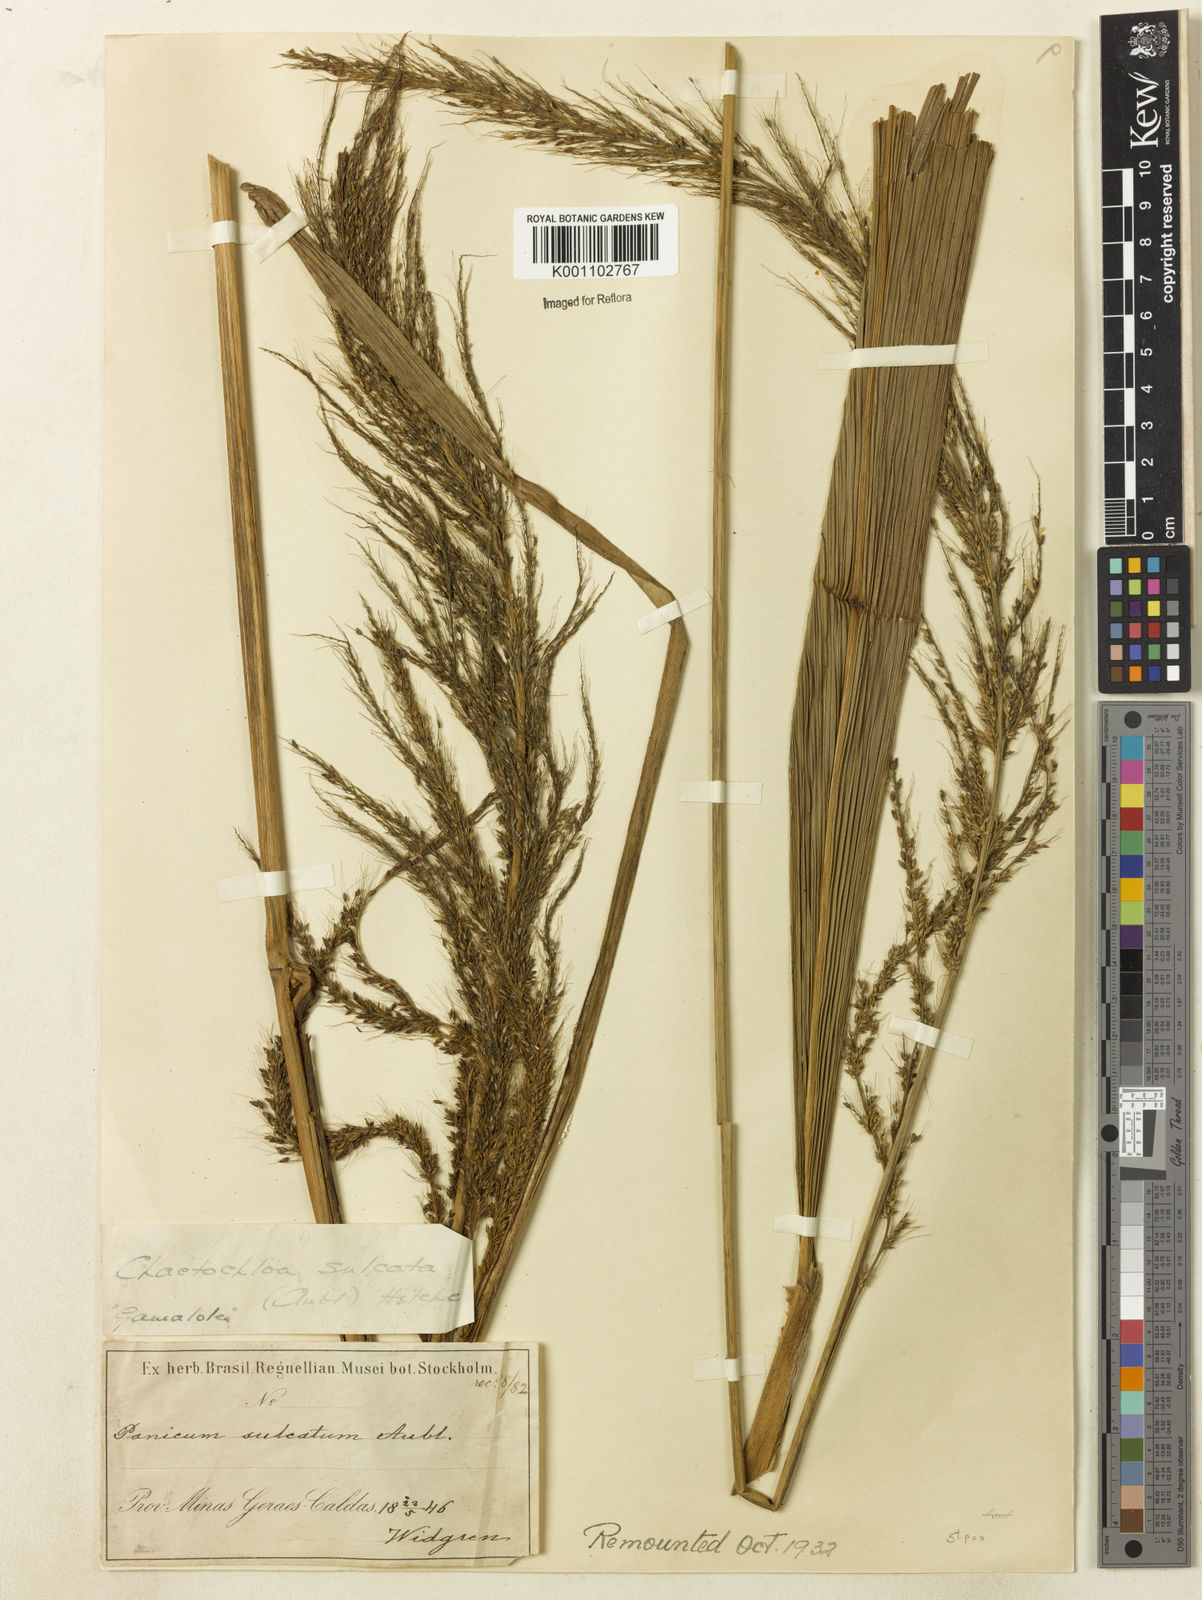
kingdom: Plantae
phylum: Tracheophyta
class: Liliopsida
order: Poales
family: Poaceae
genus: Setaria
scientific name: Setaria
